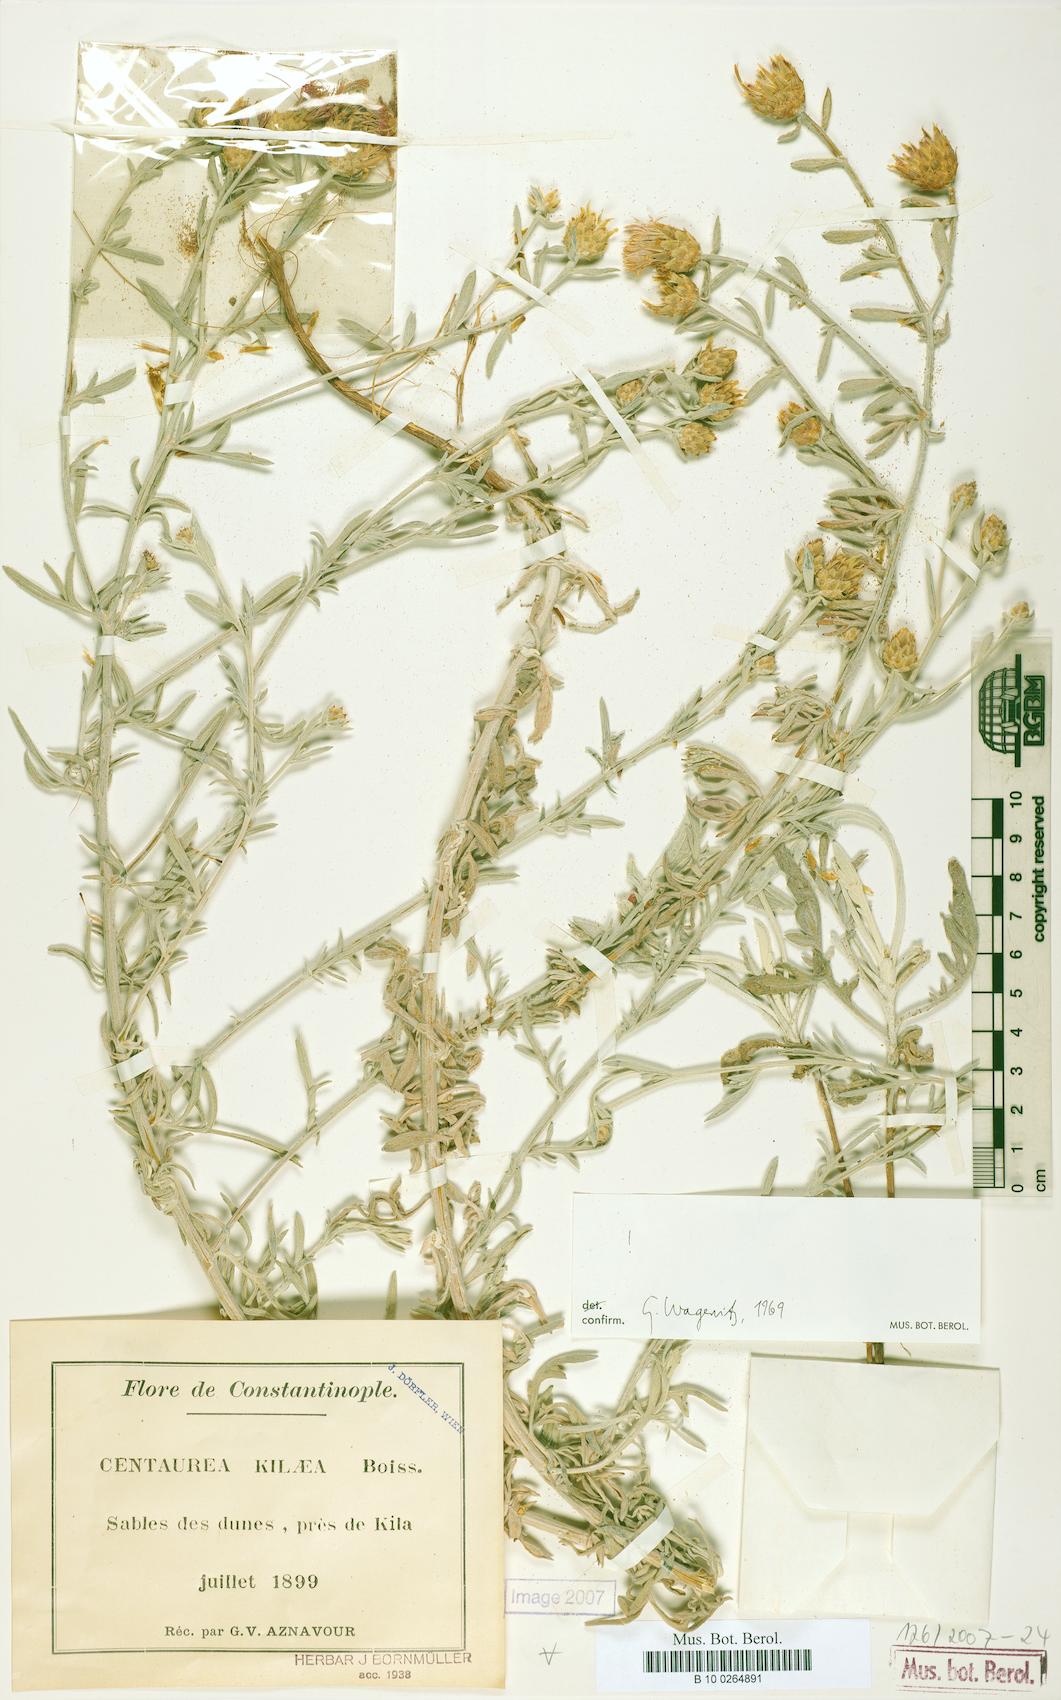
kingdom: Plantae
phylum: Tracheophyta
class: Magnoliopsida
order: Asterales
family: Asteraceae
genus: Centaurea
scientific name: Centaurea kilaea
